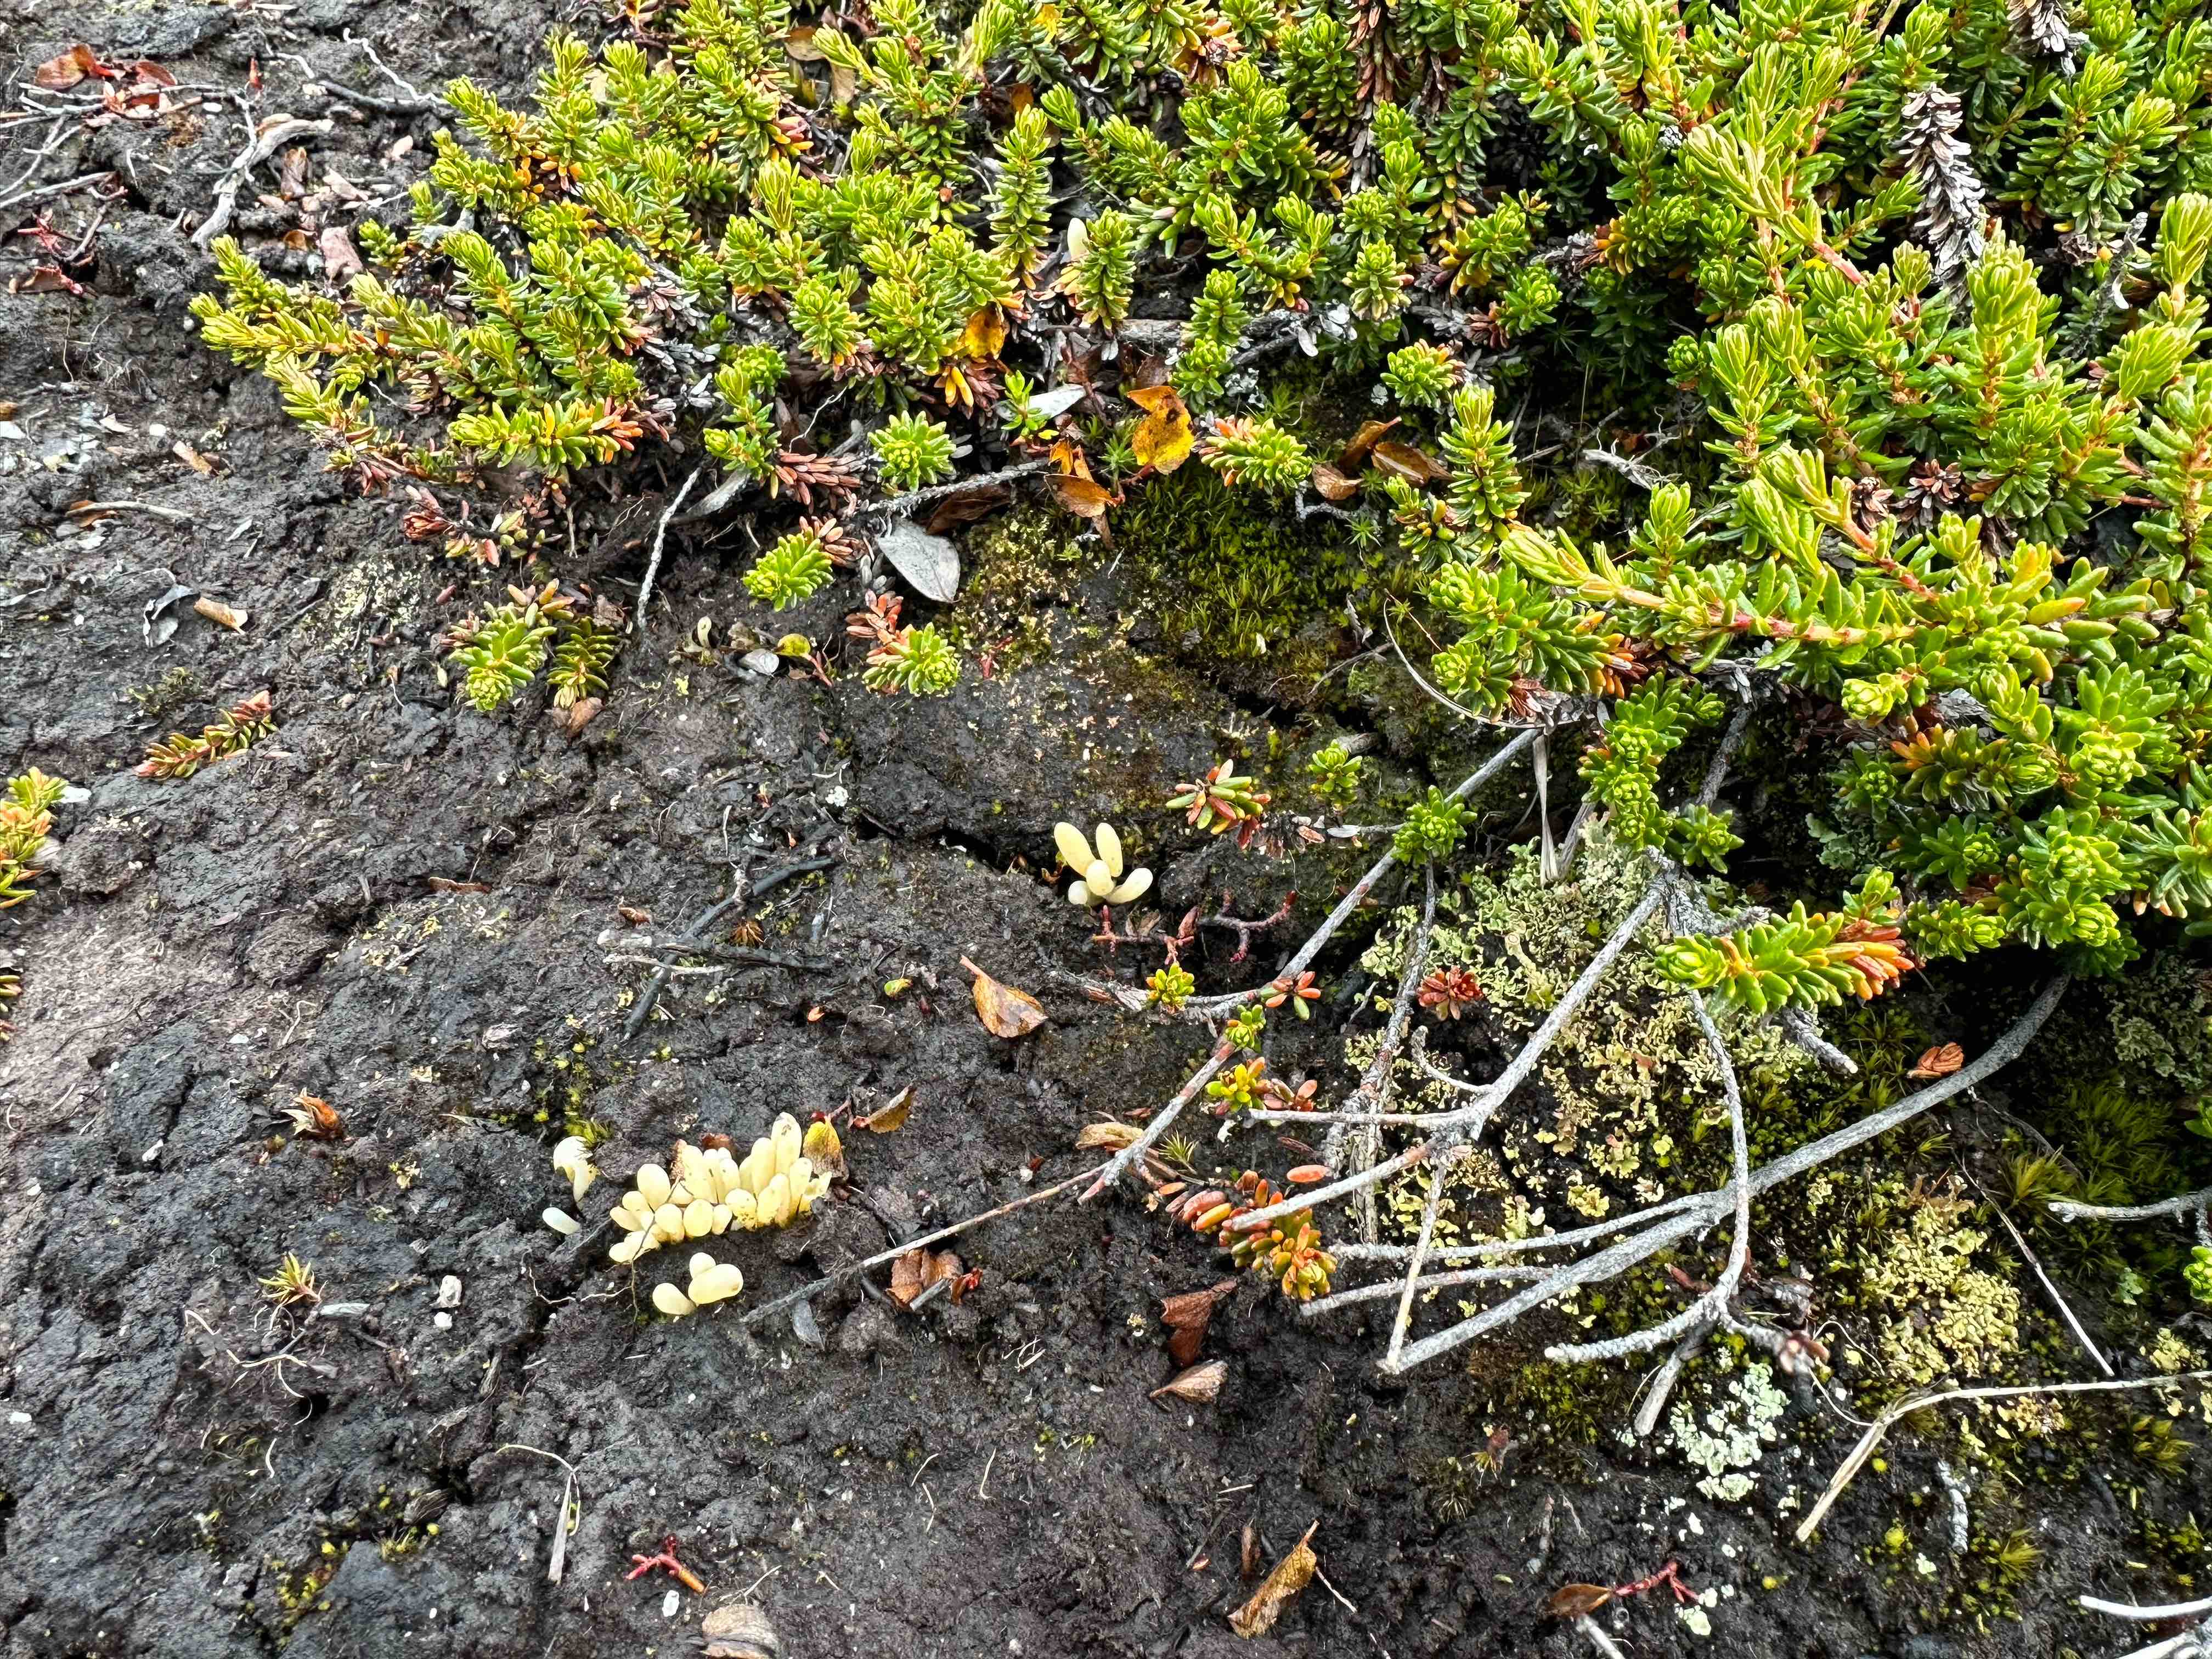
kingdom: Fungi
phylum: Basidiomycota
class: Agaricomycetes
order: Agaricales
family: Clavariaceae
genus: Clavaria
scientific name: Clavaria argillacea
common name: lerfarvet køllesvamp
